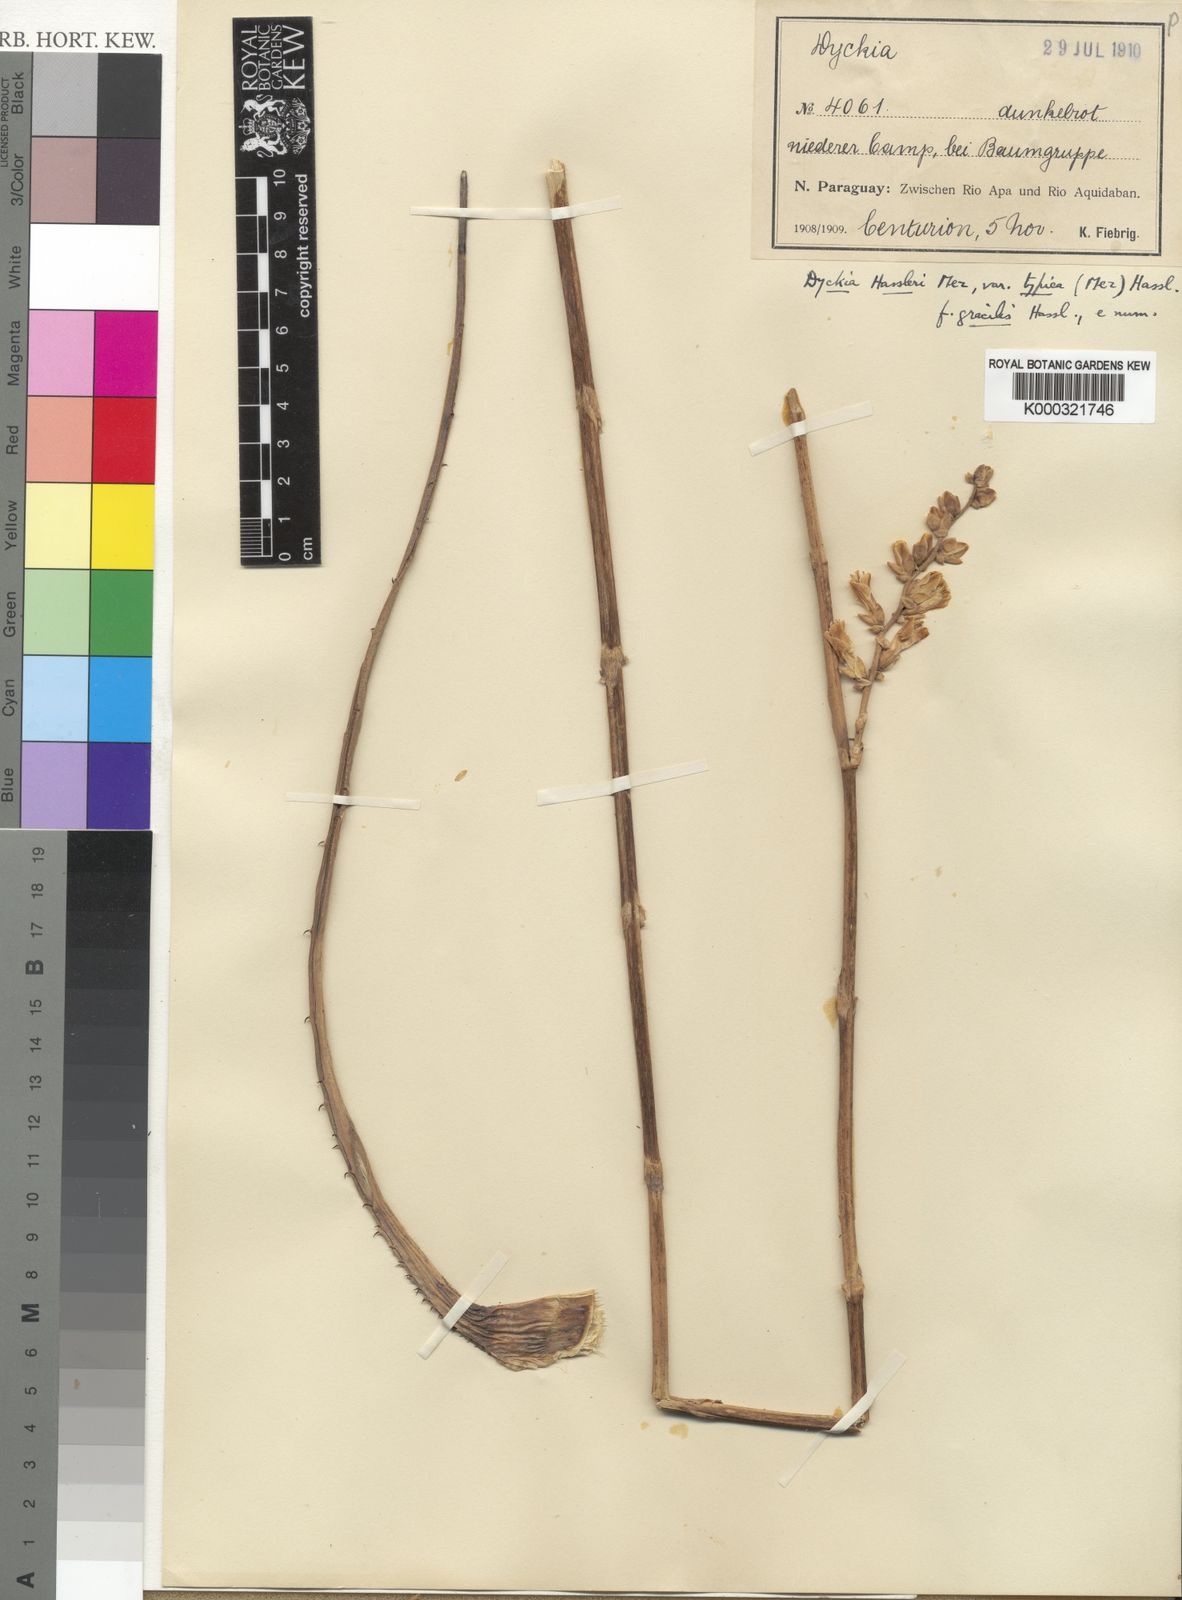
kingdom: Plantae
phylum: Tracheophyta
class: Liliopsida
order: Poales
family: Bromeliaceae
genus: Dyckia
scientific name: Dyckia leptostachya
